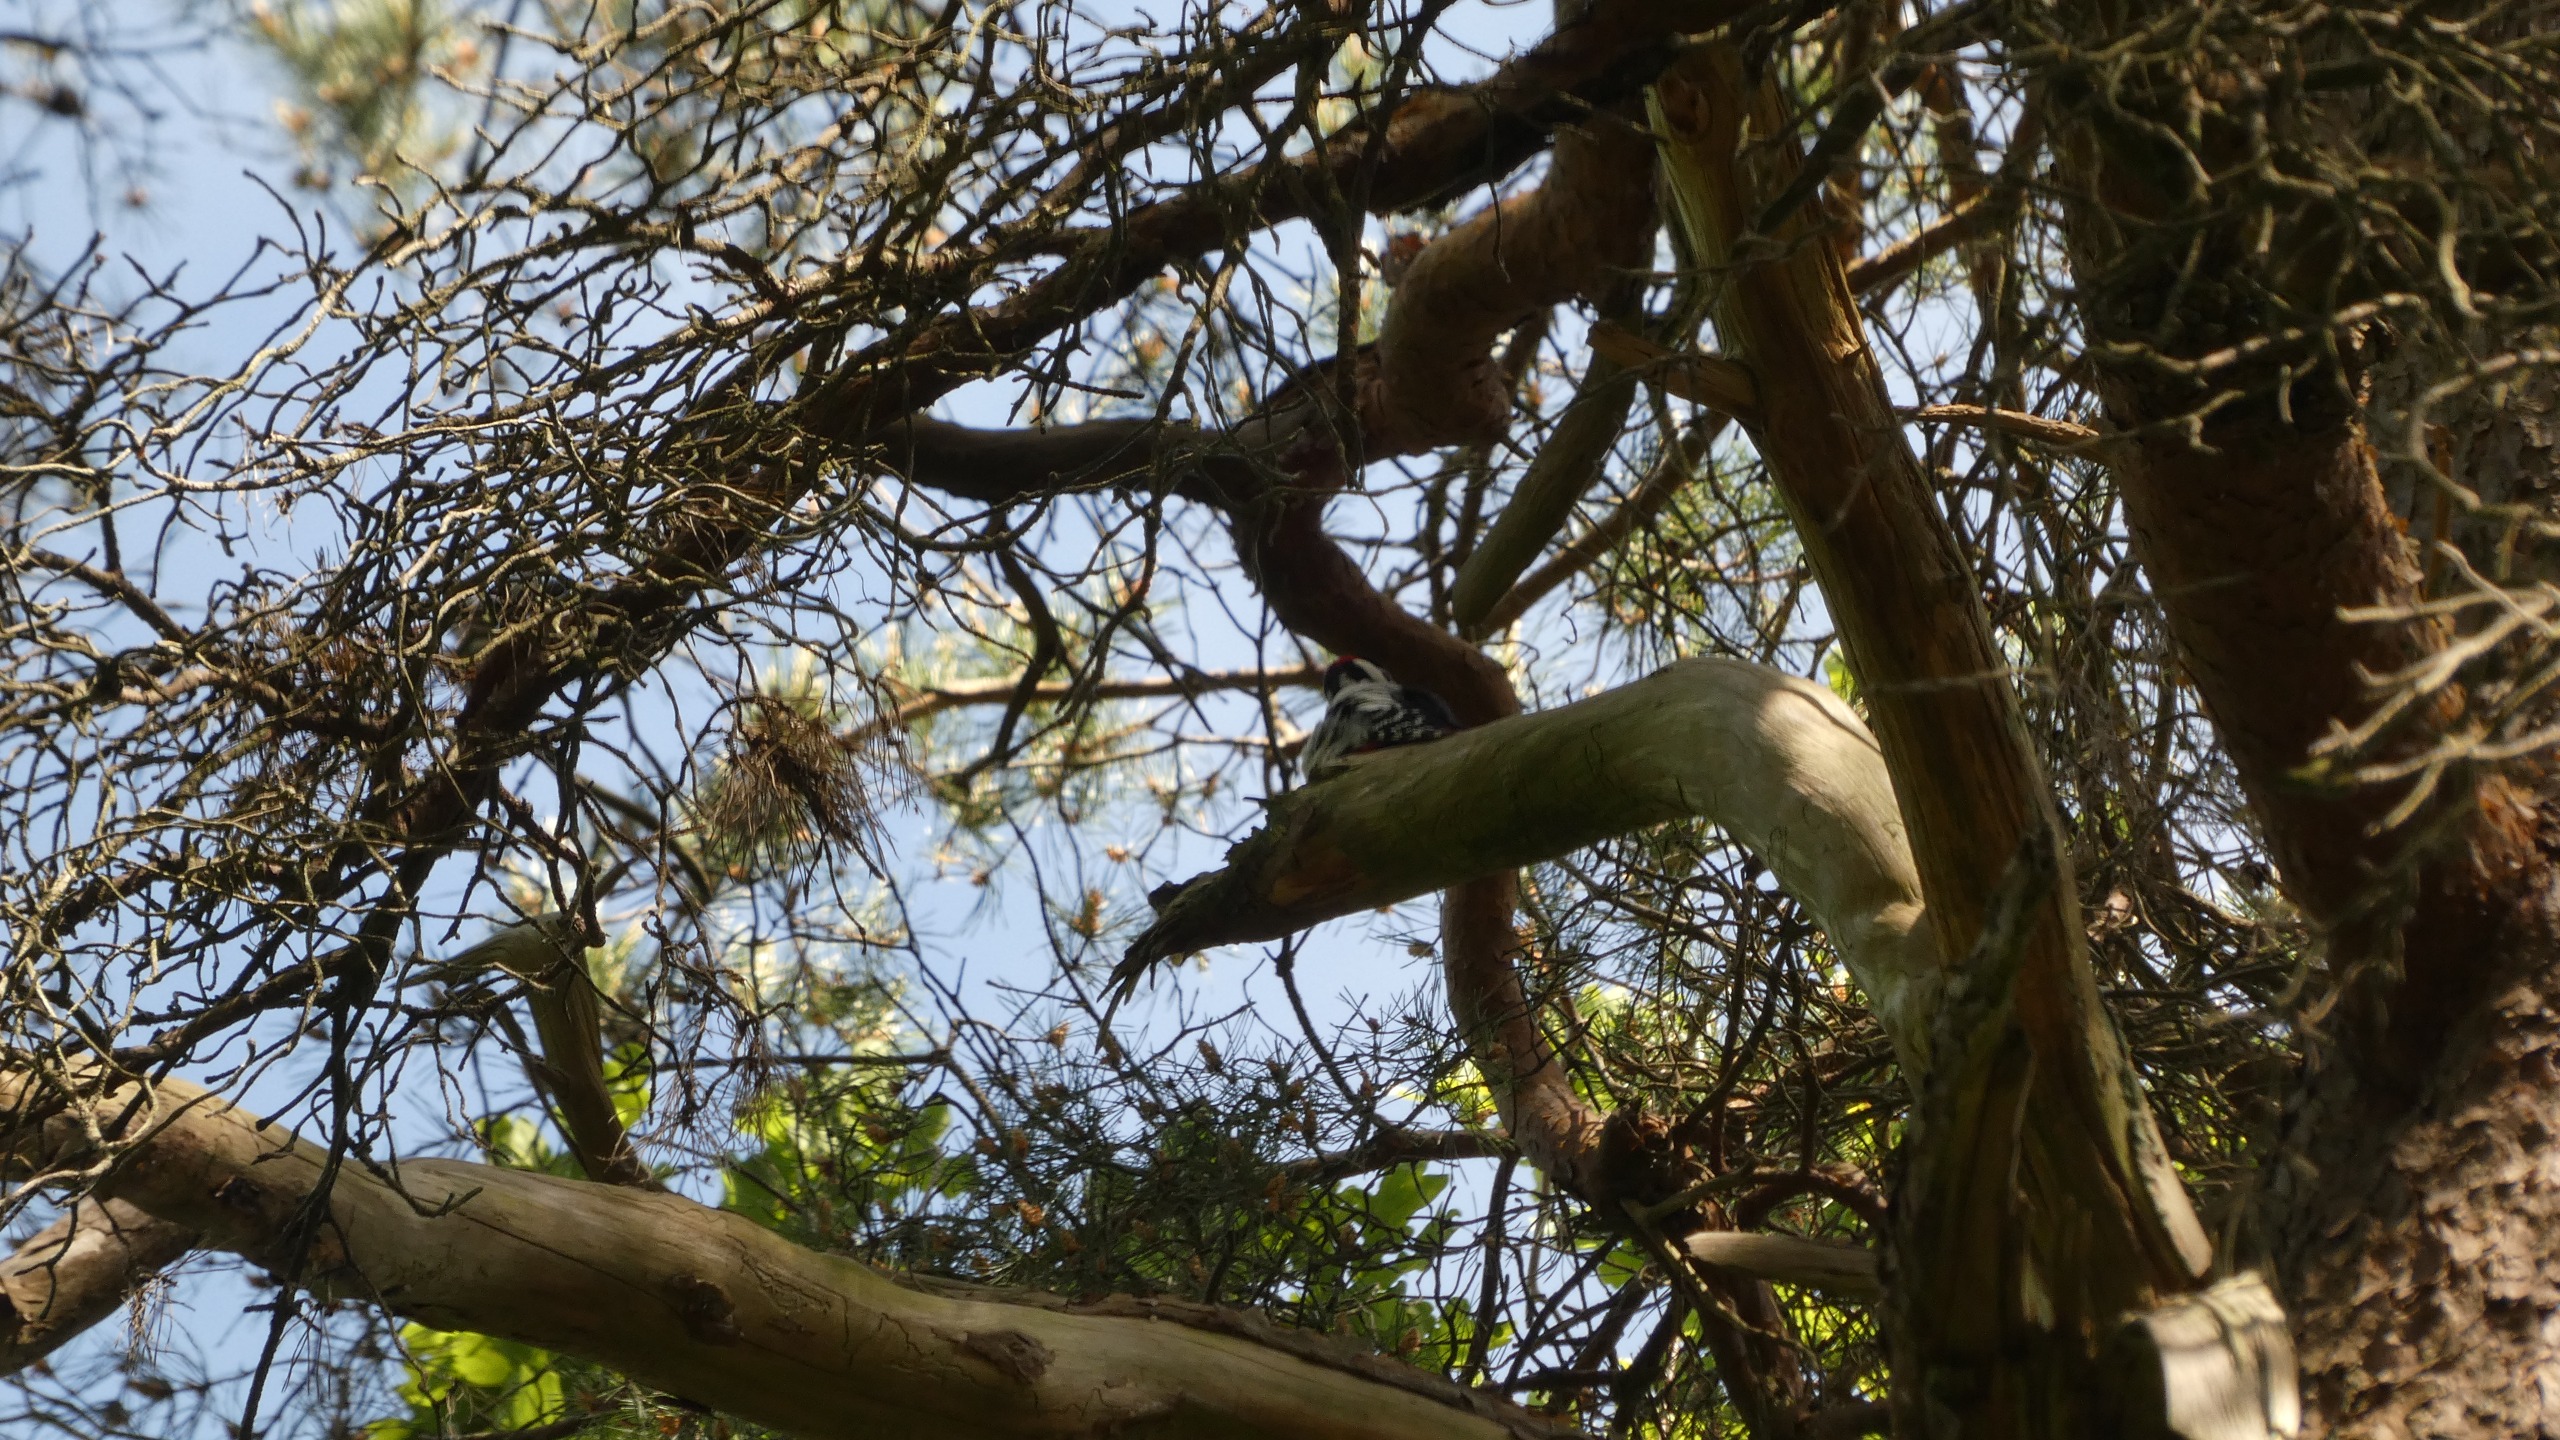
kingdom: Animalia
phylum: Chordata
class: Aves
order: Piciformes
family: Picidae
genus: Dendrocopos
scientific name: Dendrocopos major
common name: Stor flagspætte
